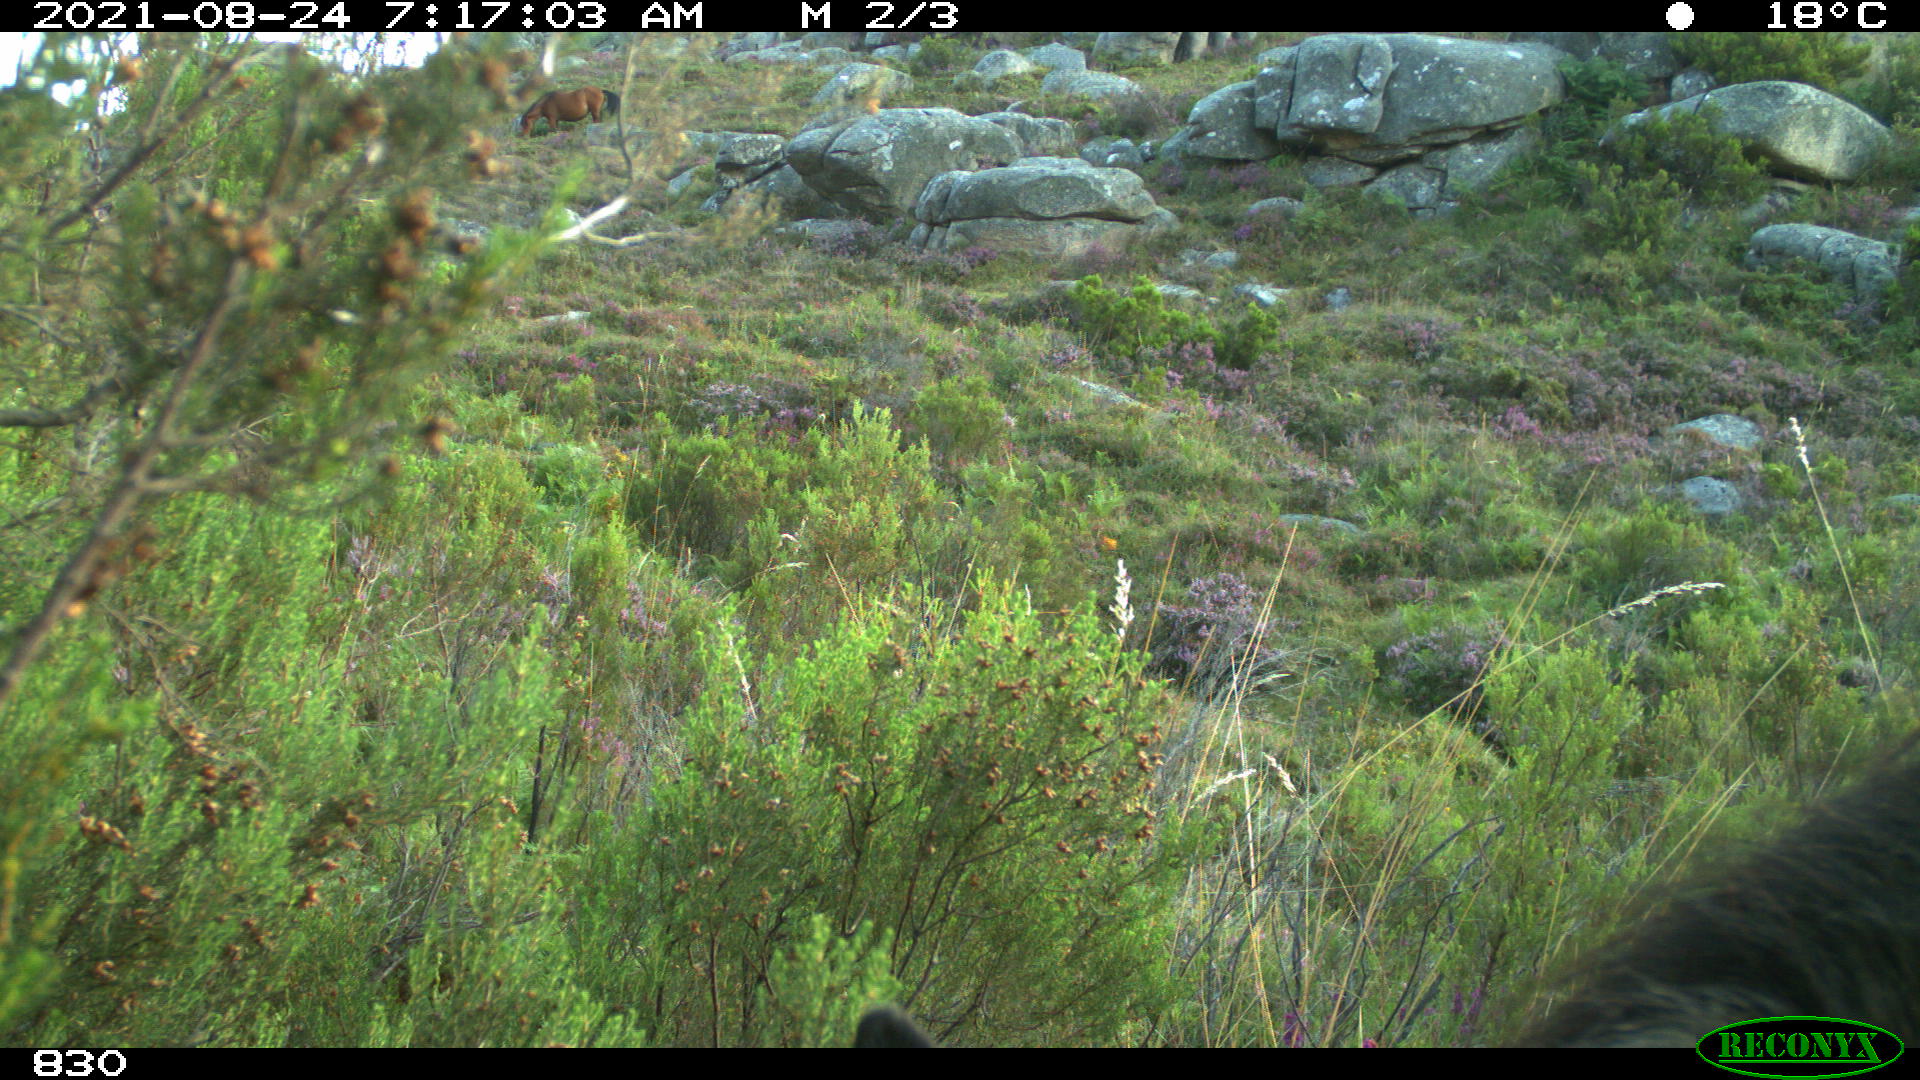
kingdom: Animalia
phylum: Chordata
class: Mammalia
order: Perissodactyla
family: Equidae
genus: Equus
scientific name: Equus caballus
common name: Horse
